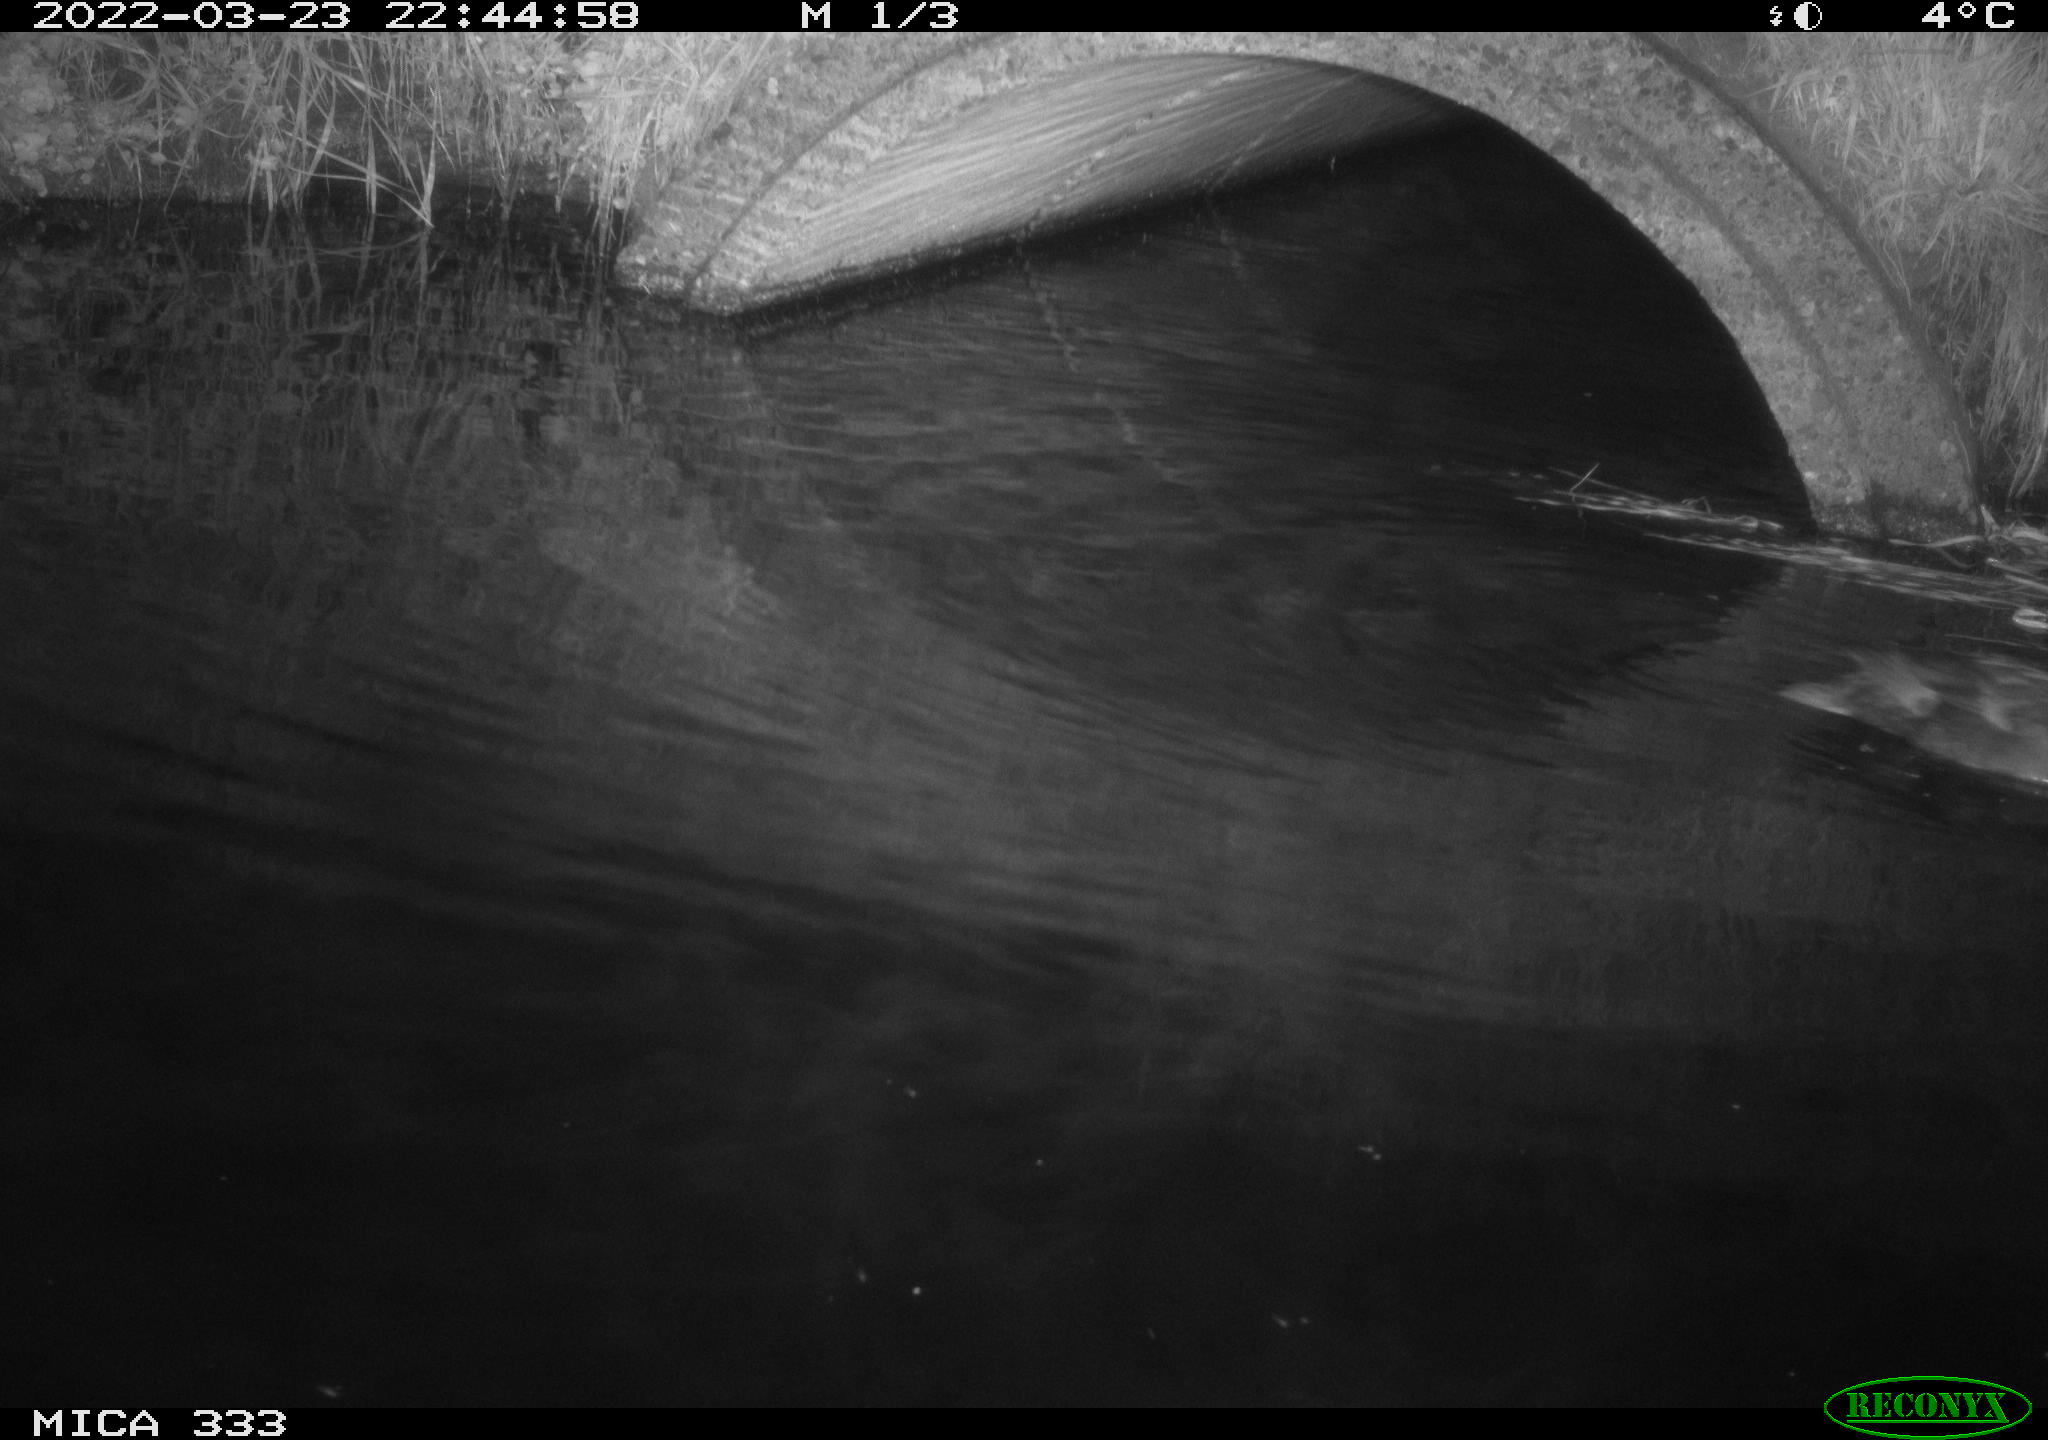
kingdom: Animalia
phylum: Chordata
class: Aves
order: Anseriformes
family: Anatidae
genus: Anas
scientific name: Anas platyrhynchos
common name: Mallard
